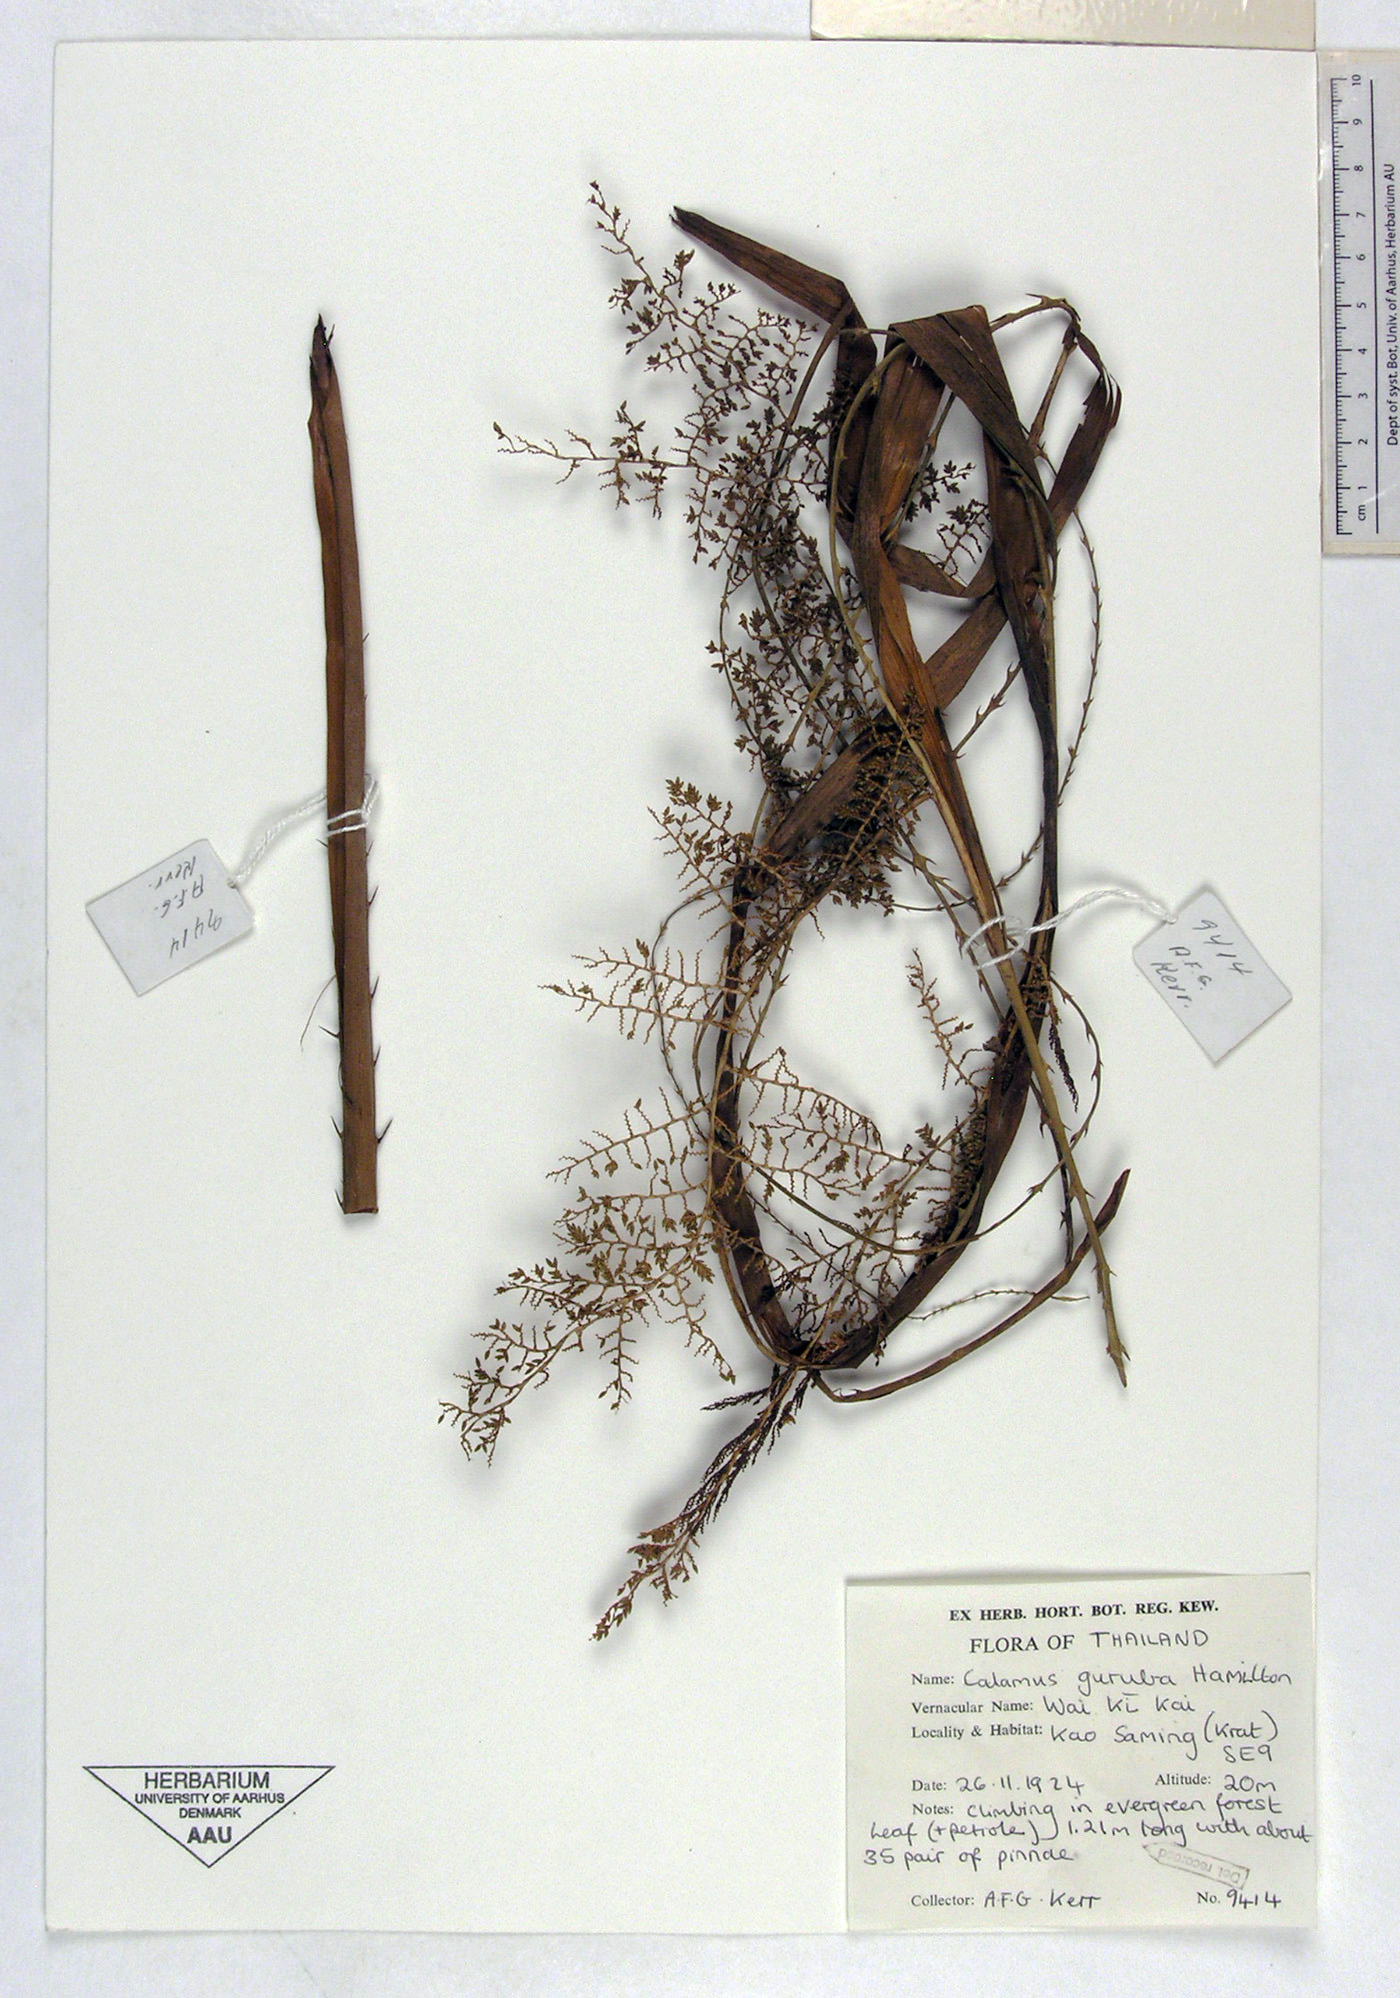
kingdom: Plantae
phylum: Tracheophyta
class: Liliopsida
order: Arecales
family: Arecaceae
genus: Calamus
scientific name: Calamus guruba
